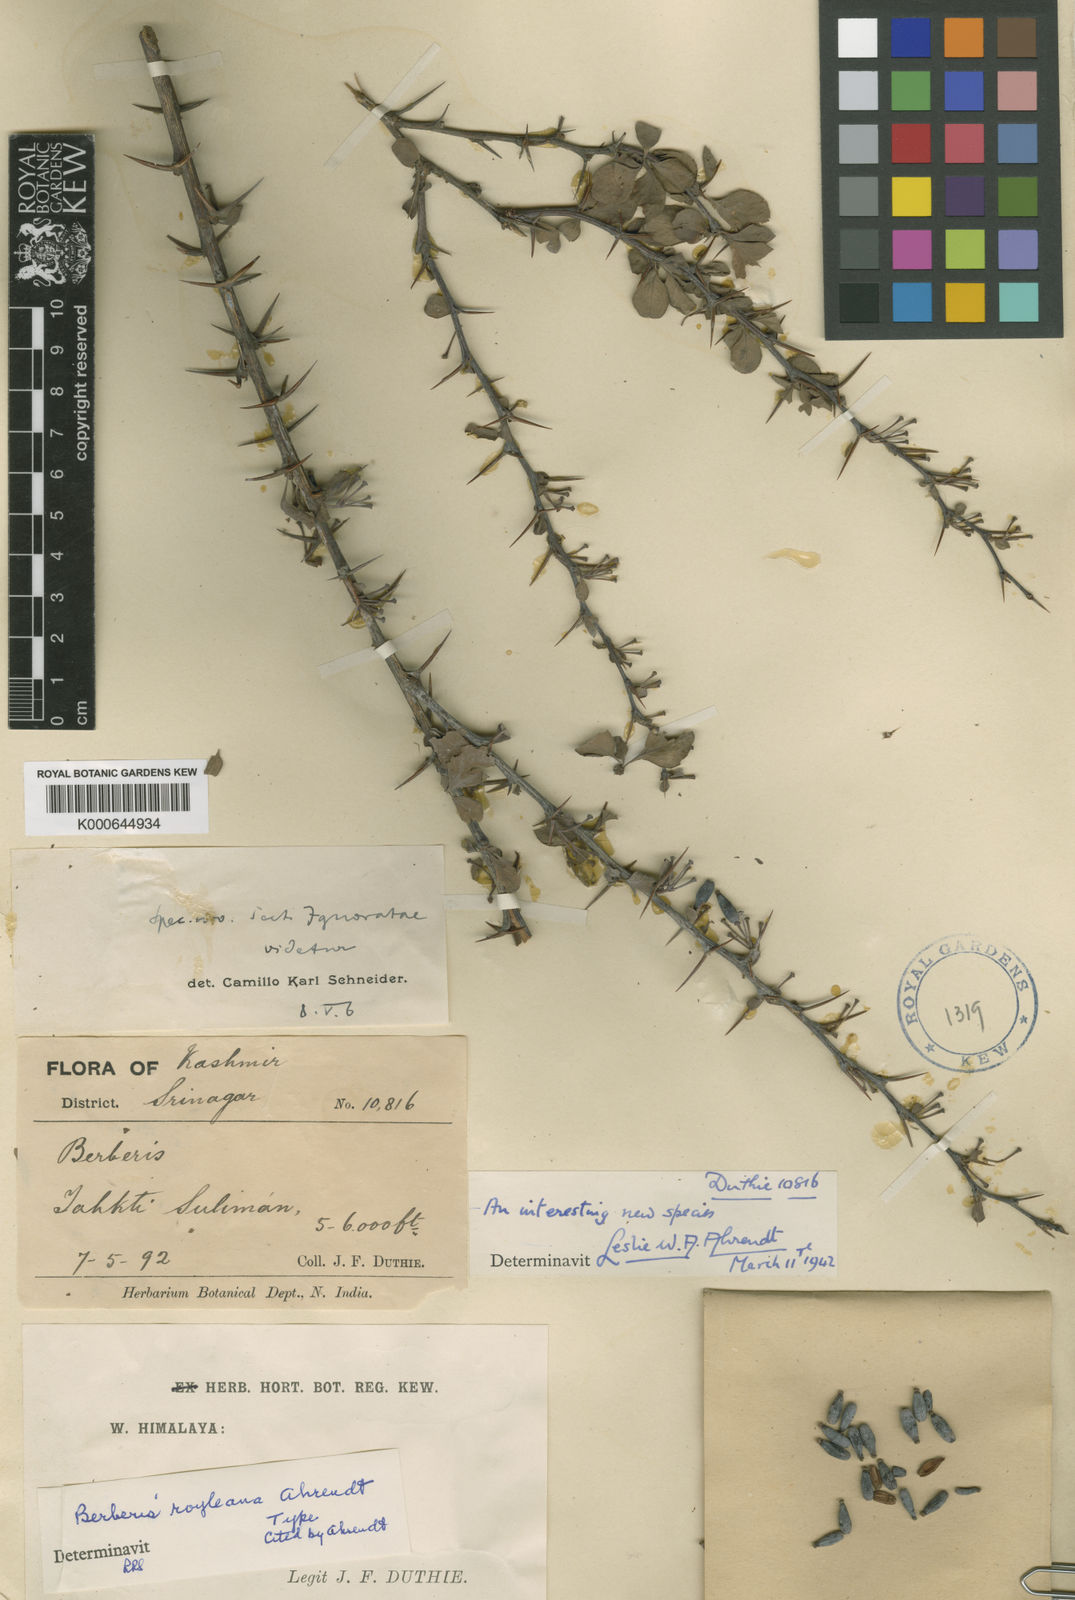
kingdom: Plantae
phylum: Tracheophyta
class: Magnoliopsida
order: Ranunculales
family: Berberidaceae
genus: Berberis
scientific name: Berberis royleana
